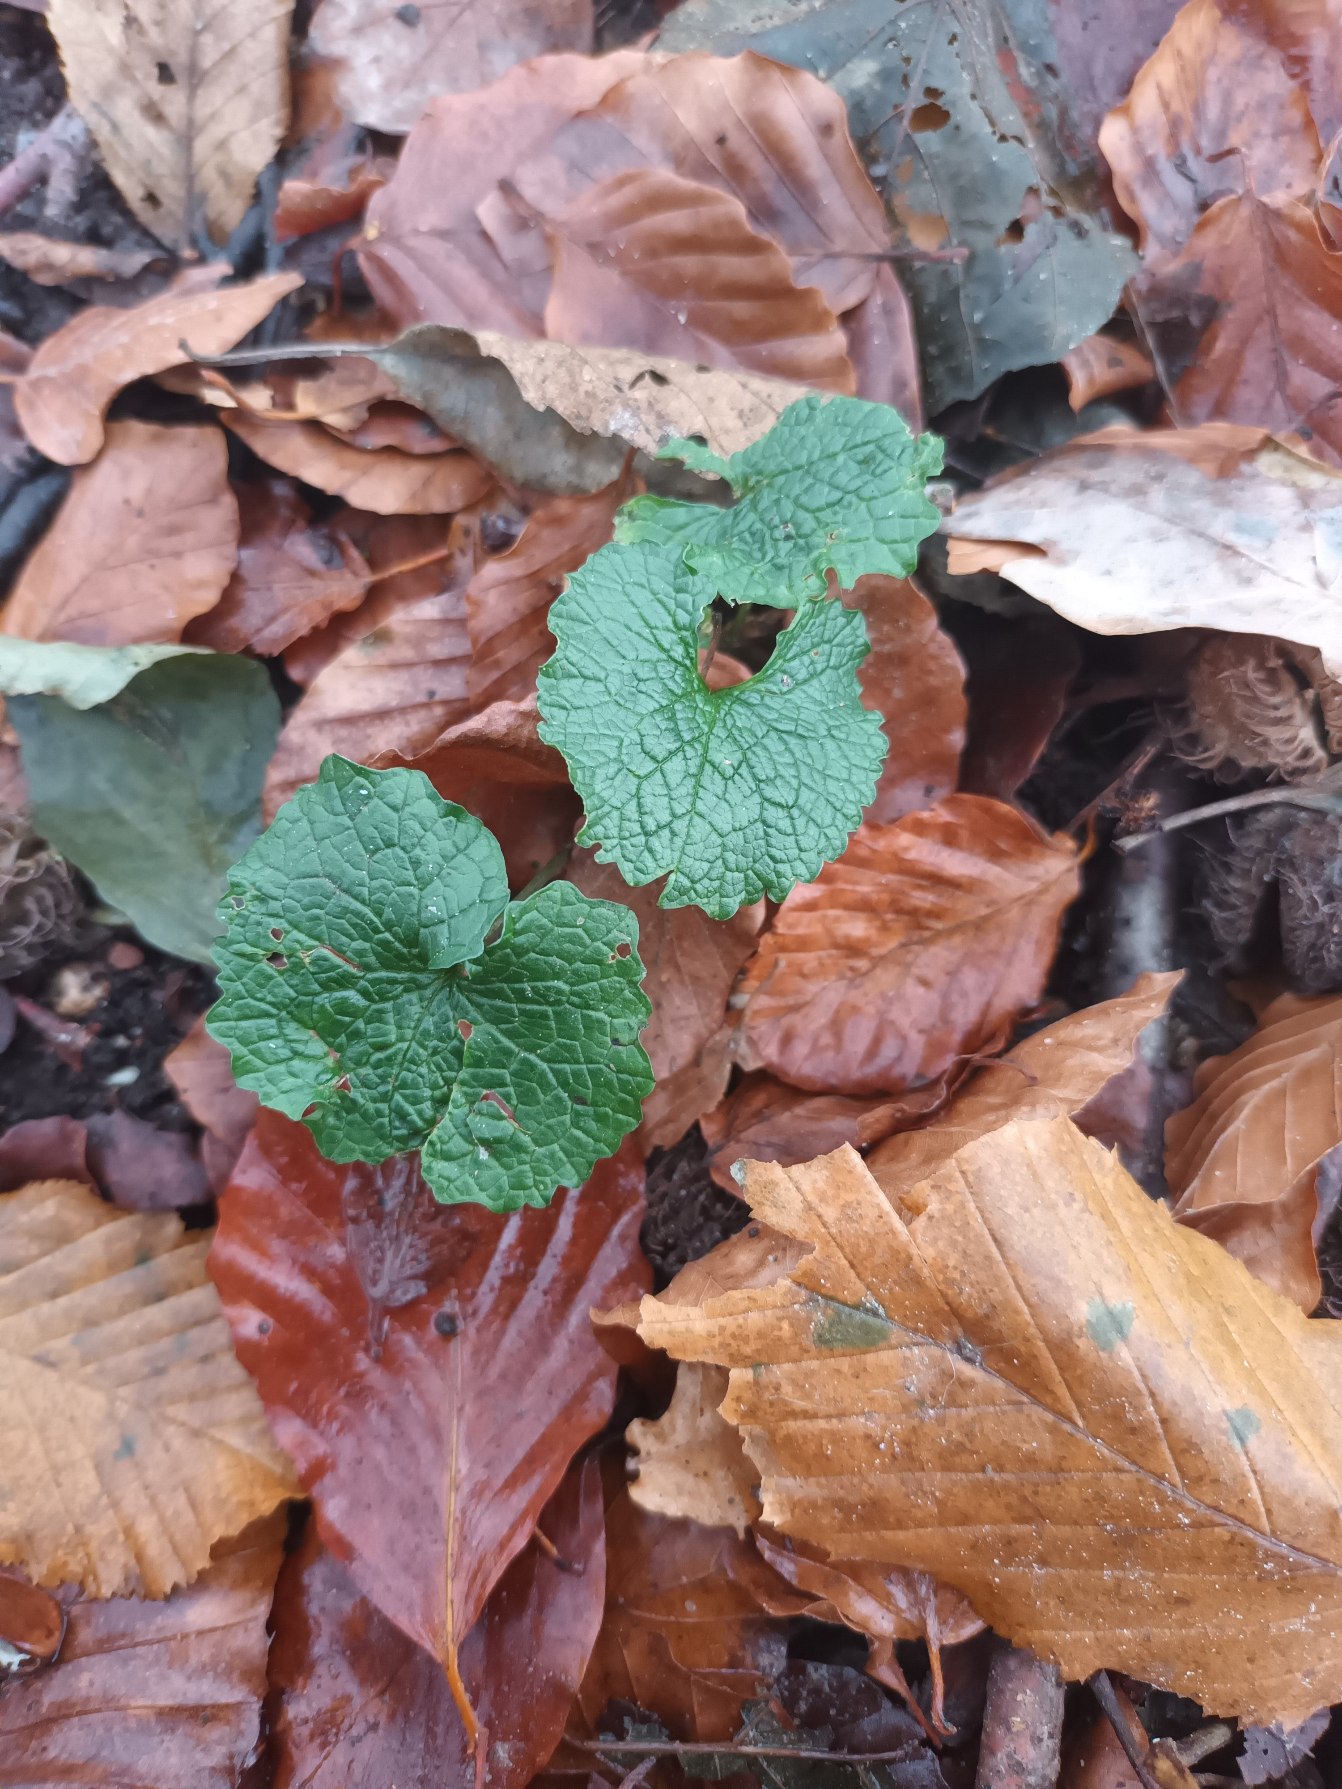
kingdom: Plantae
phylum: Tracheophyta
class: Magnoliopsida
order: Brassicales
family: Brassicaceae
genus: Alliaria
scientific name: Alliaria petiolata
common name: Løgkarse
